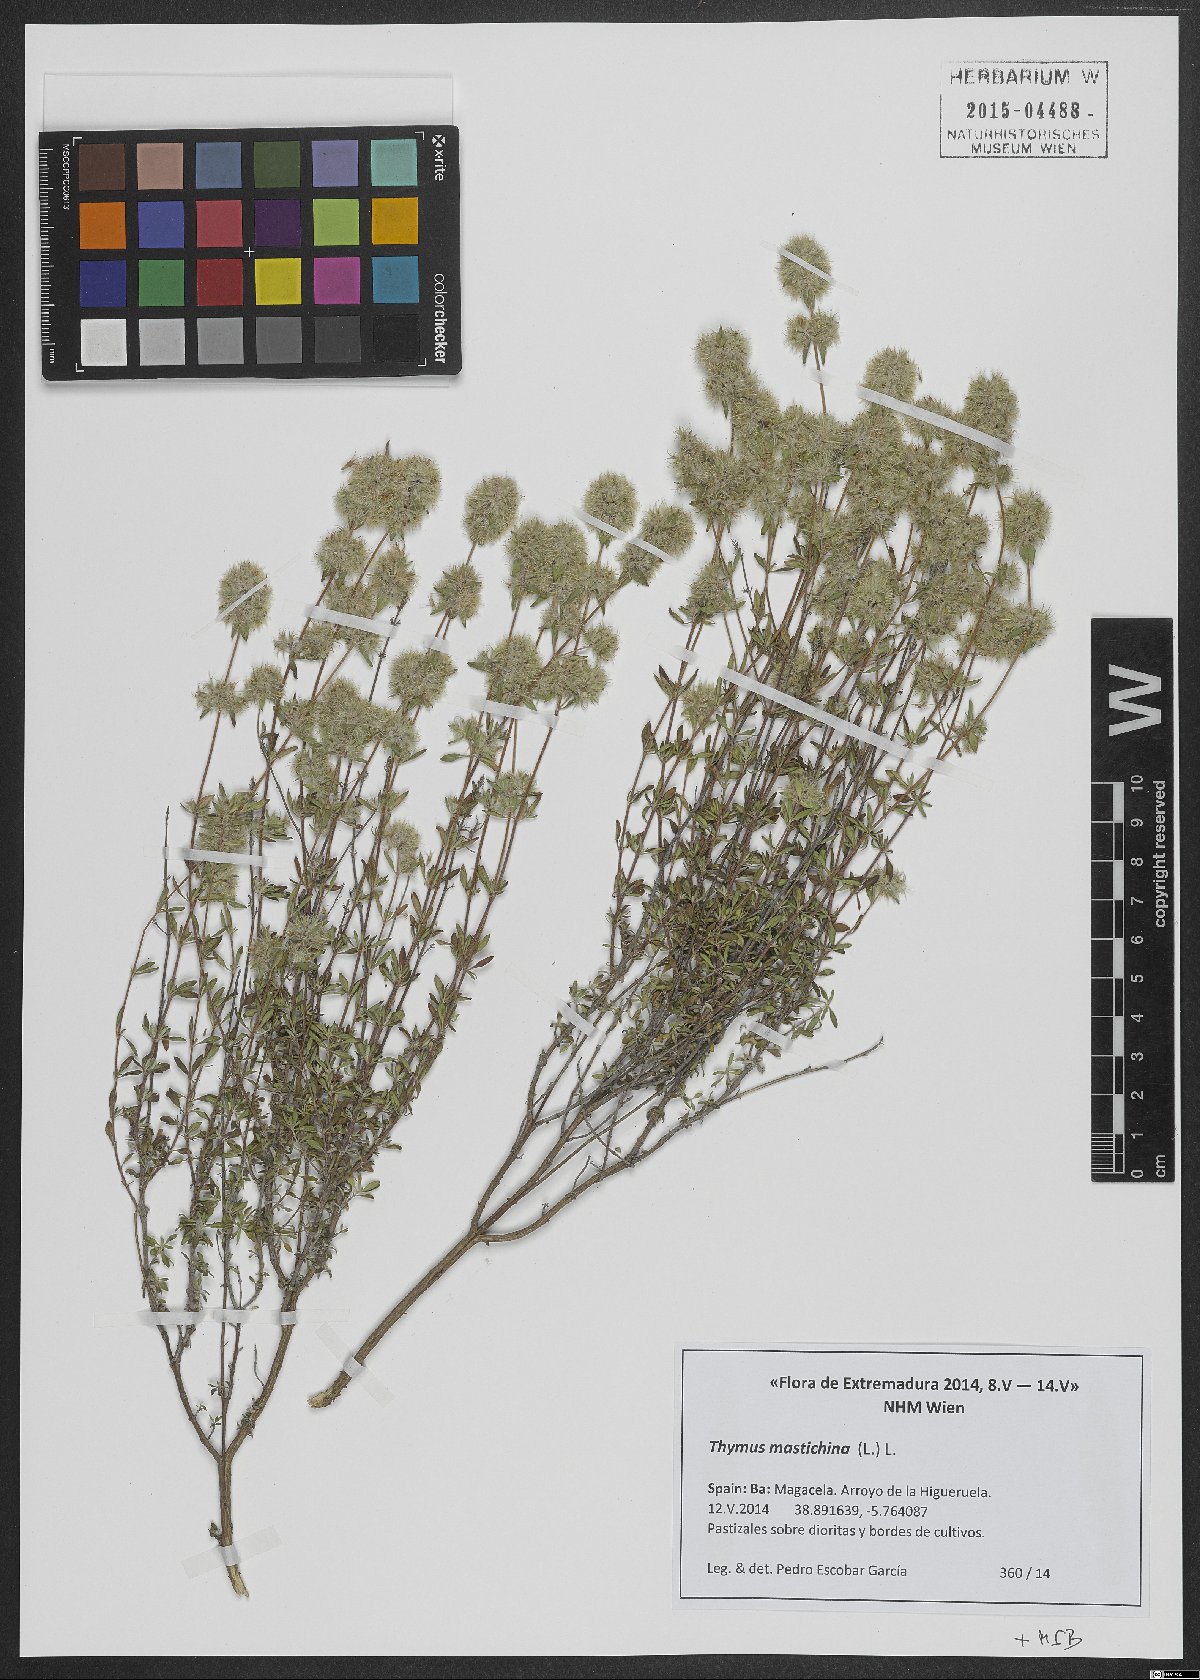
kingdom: Plantae
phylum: Tracheophyta
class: Magnoliopsida
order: Lamiales
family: Lamiaceae
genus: Thymus
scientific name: Thymus mastichina
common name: Mastic thyme
